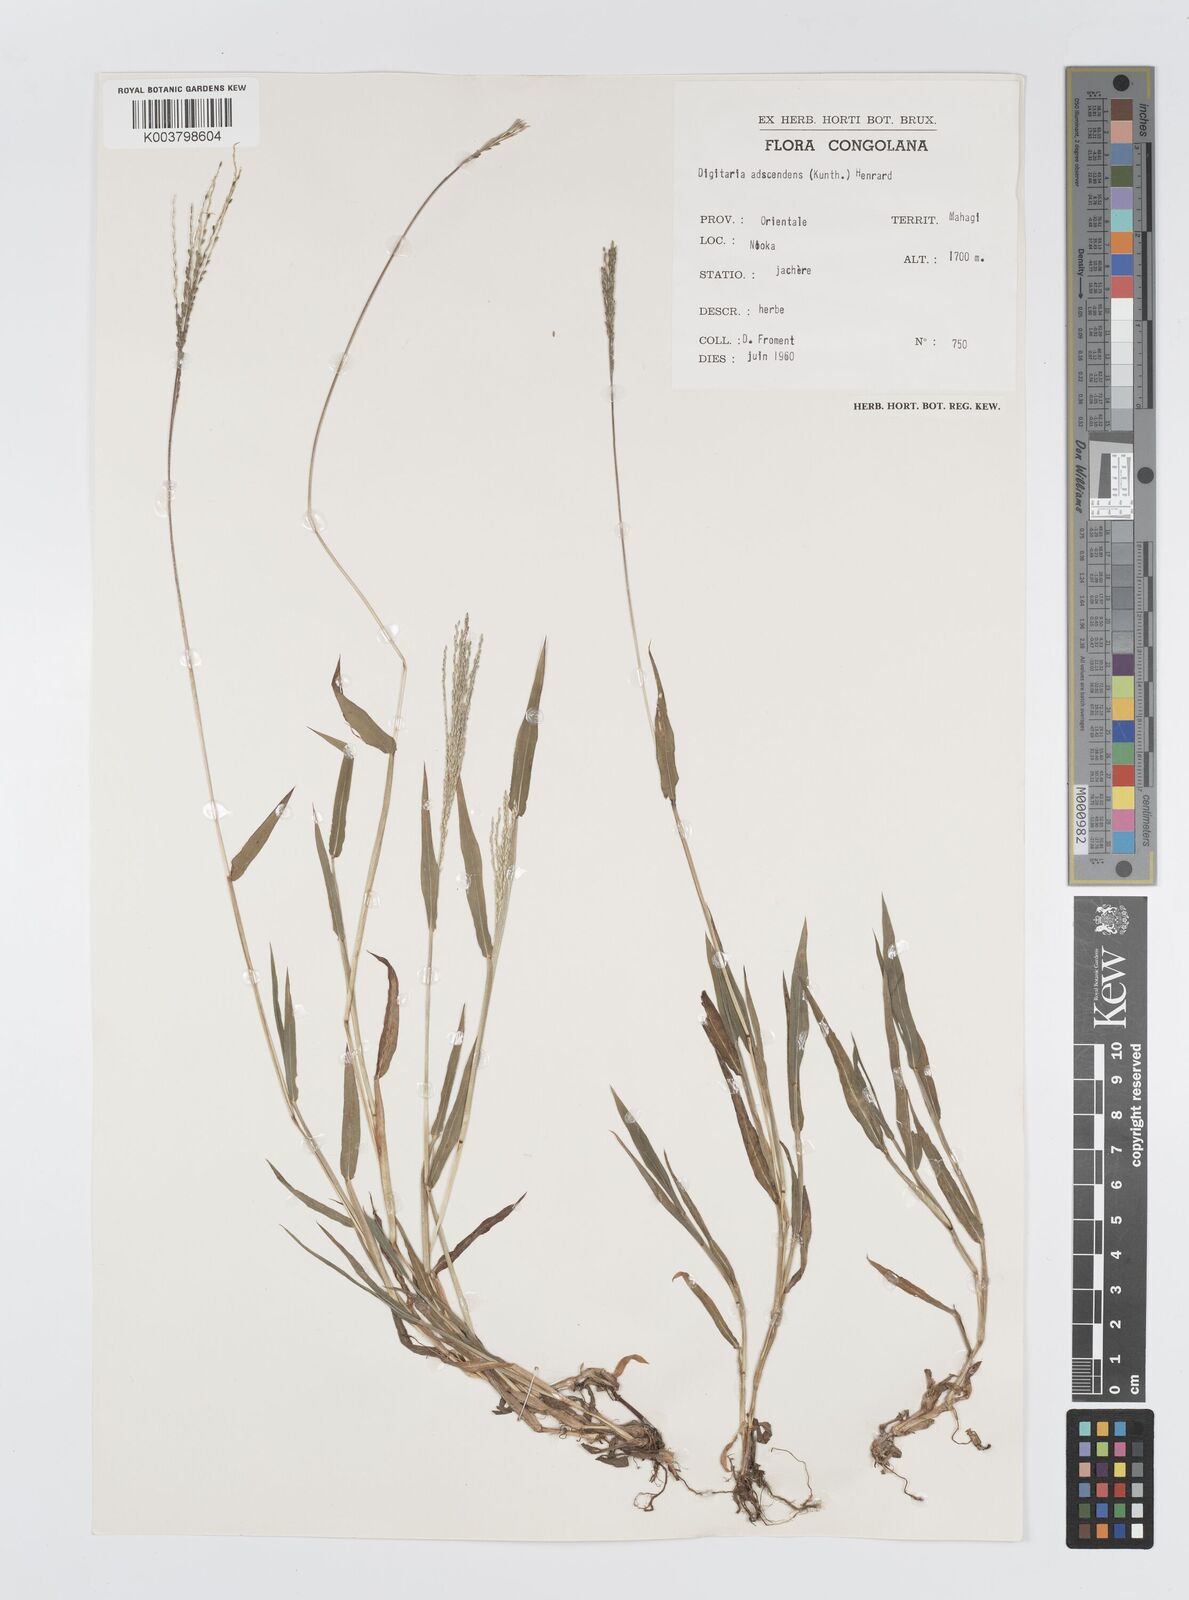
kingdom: Plantae
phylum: Tracheophyta
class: Liliopsida
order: Poales
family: Poaceae
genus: Digitaria
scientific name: Digitaria velutina
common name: Long-plume finger grass
